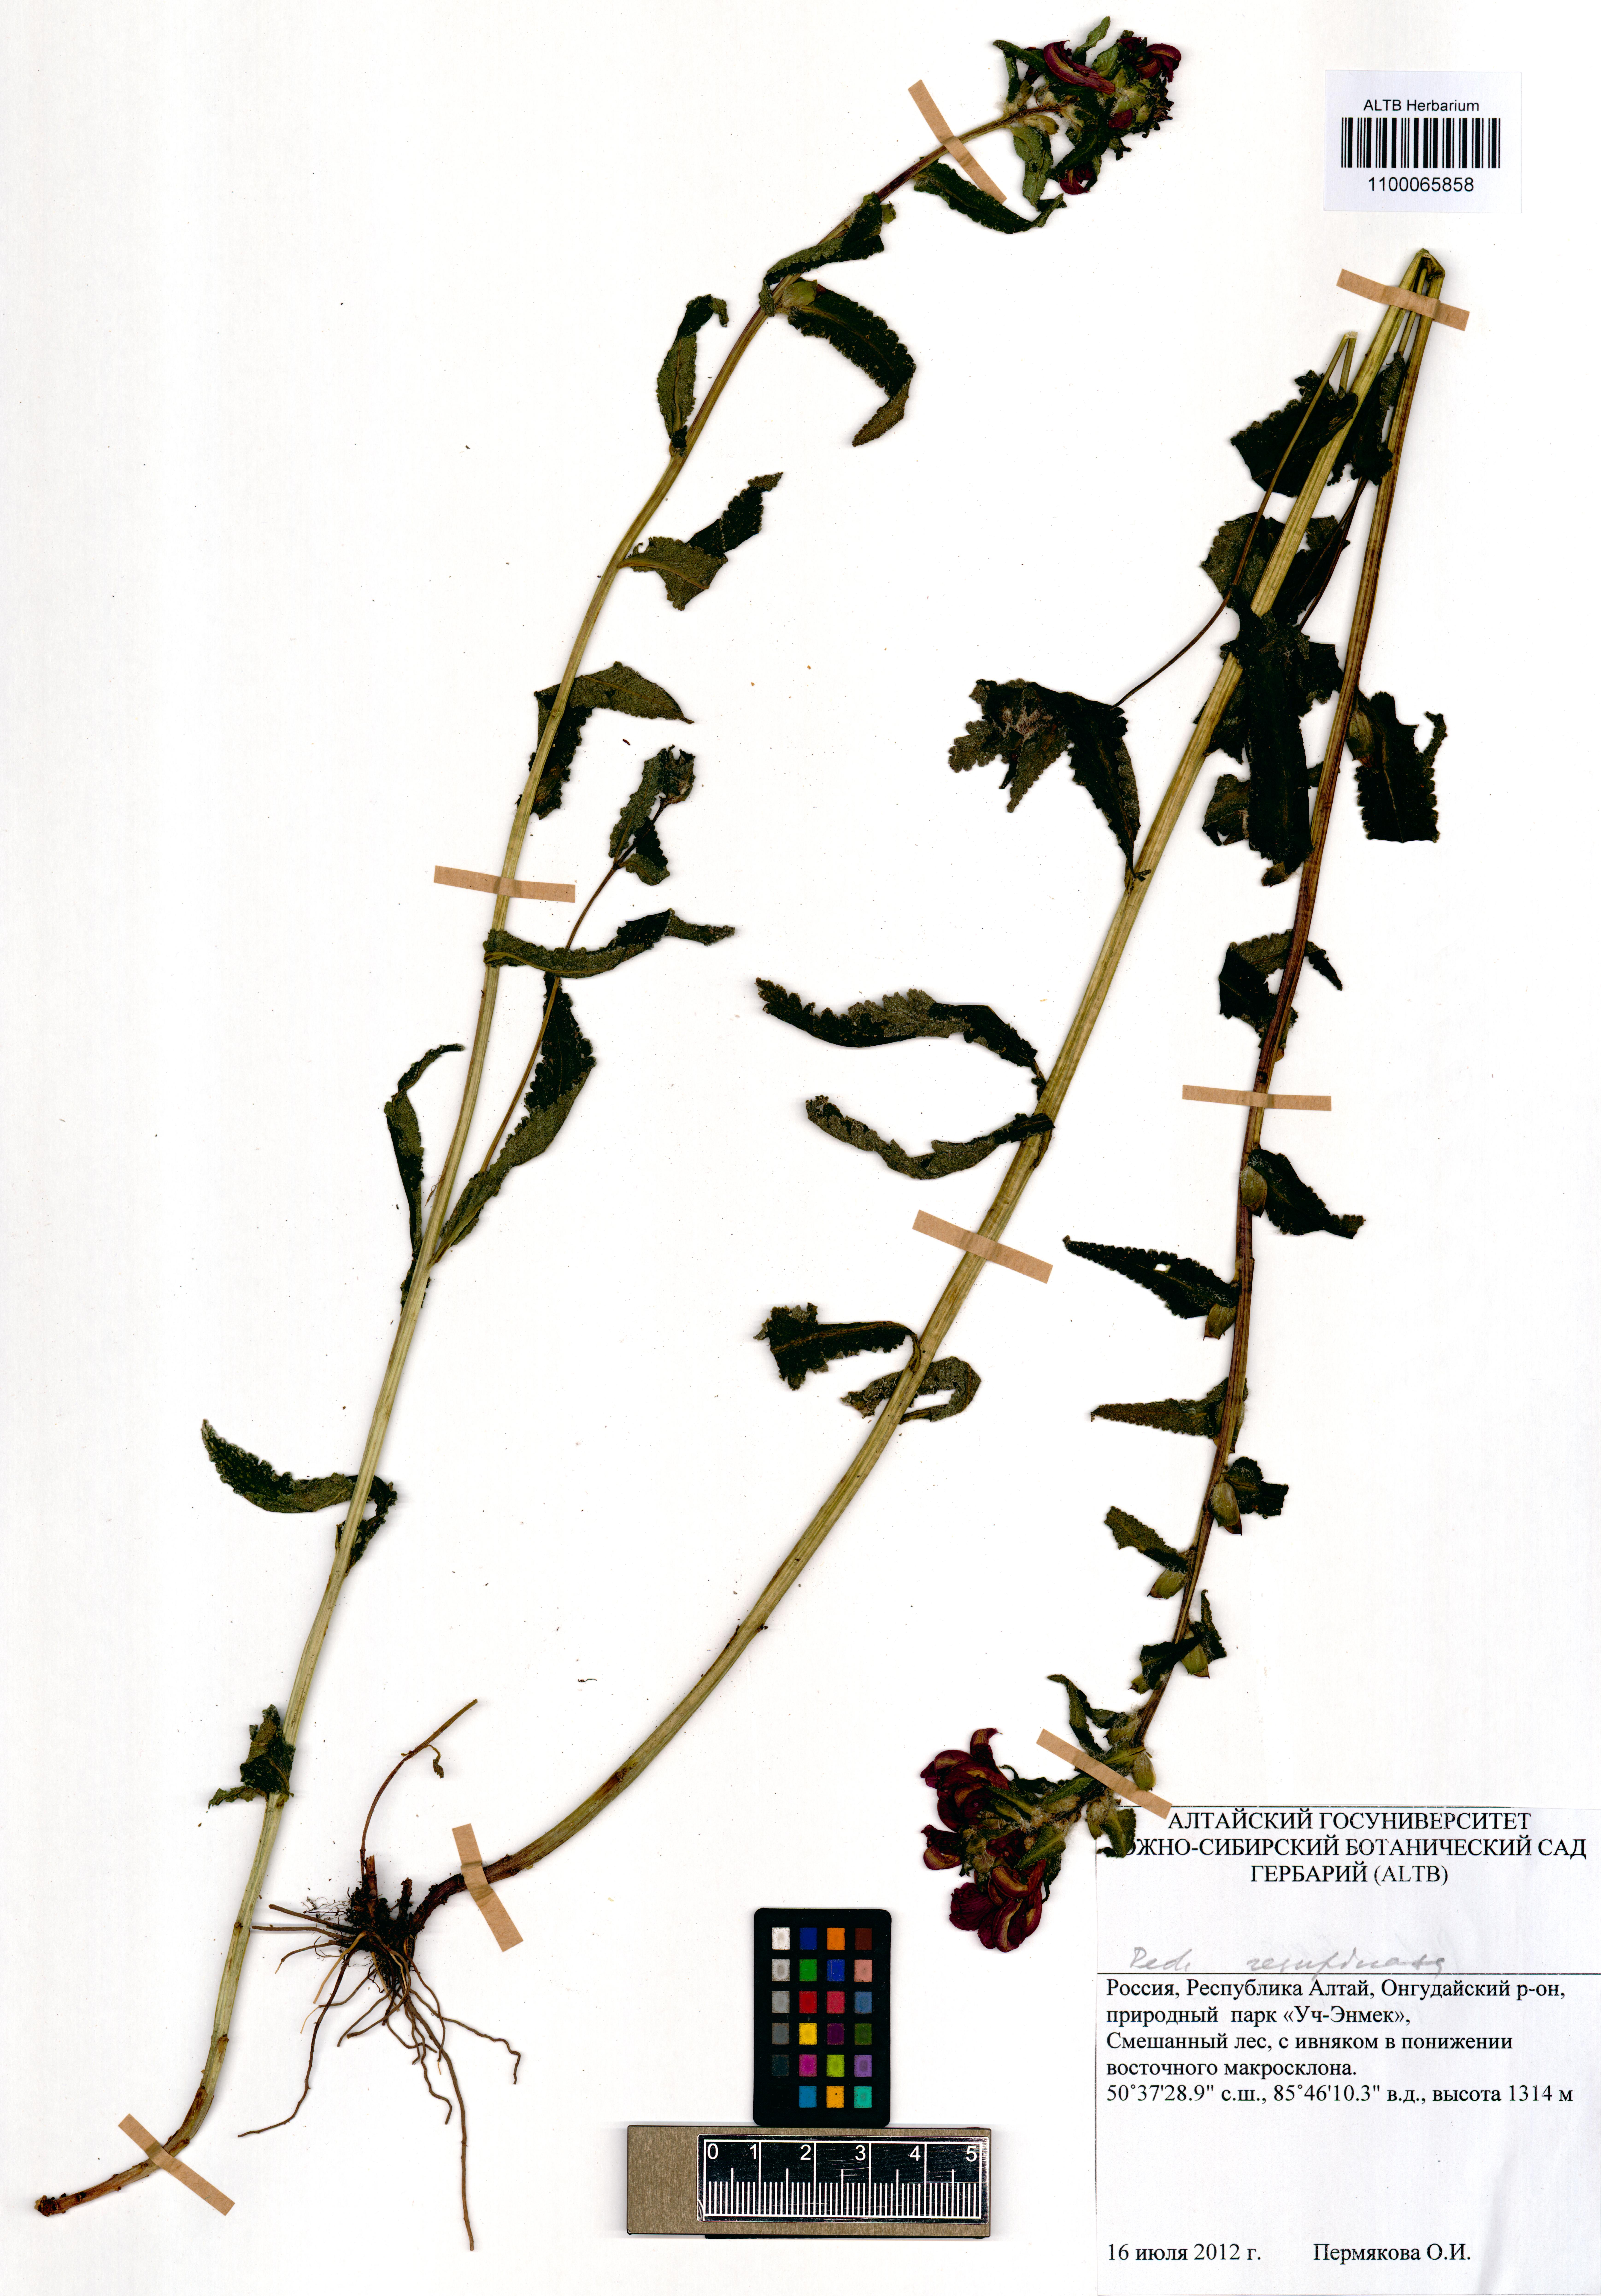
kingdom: Plantae
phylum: Tracheophyta
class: Magnoliopsida
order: Lamiales
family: Orobanchaceae
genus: Pedicularis
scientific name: Pedicularis resupinata
